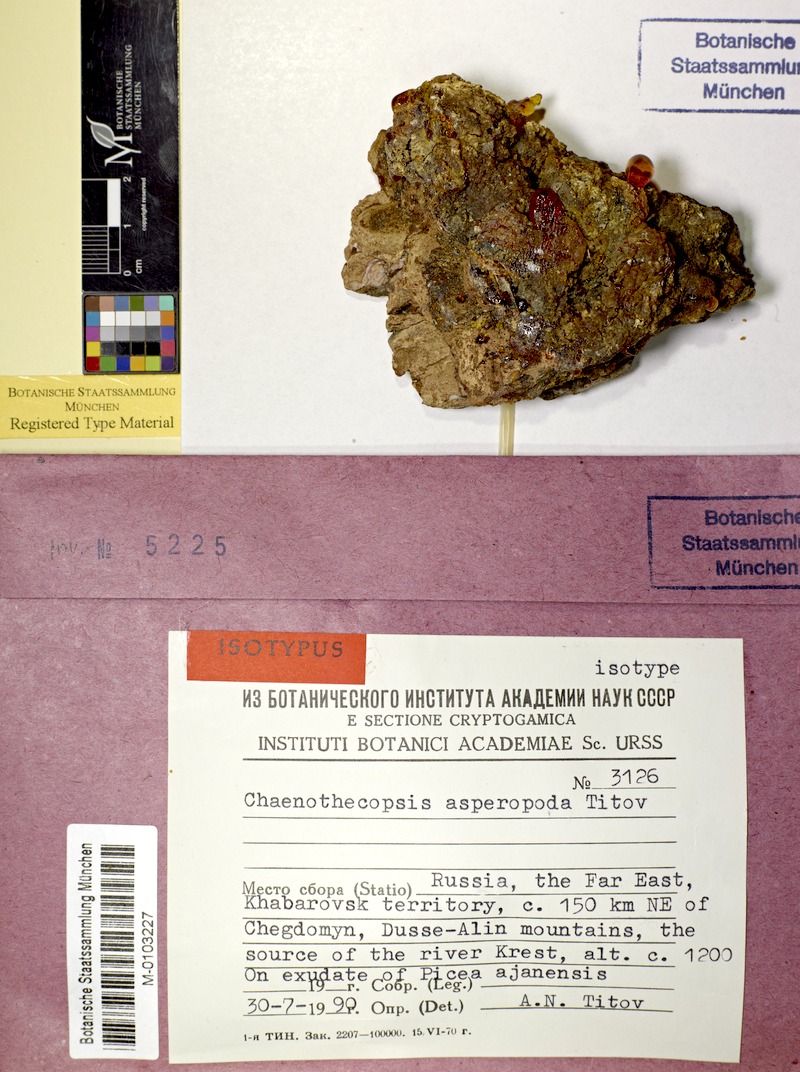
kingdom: Fungi
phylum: Ascomycota
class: Eurotiomycetes
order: Mycocaliciales
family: Mycocaliciaceae
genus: Chaenothecopsis
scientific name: Chaenothecopsis asperopoda
